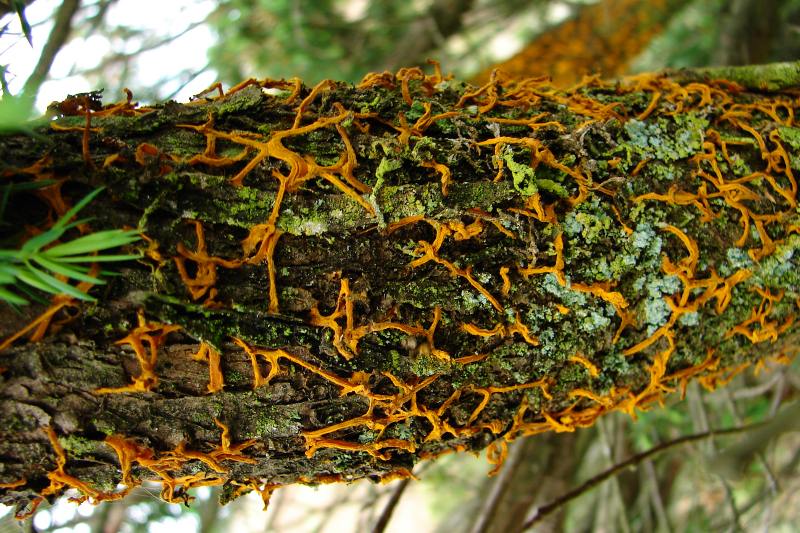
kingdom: Fungi
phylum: Basidiomycota
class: Pucciniomycetes
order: Pucciniales
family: Gymnosporangiaceae
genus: Gymnosporangium
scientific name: Gymnosporangium clavariiforme
